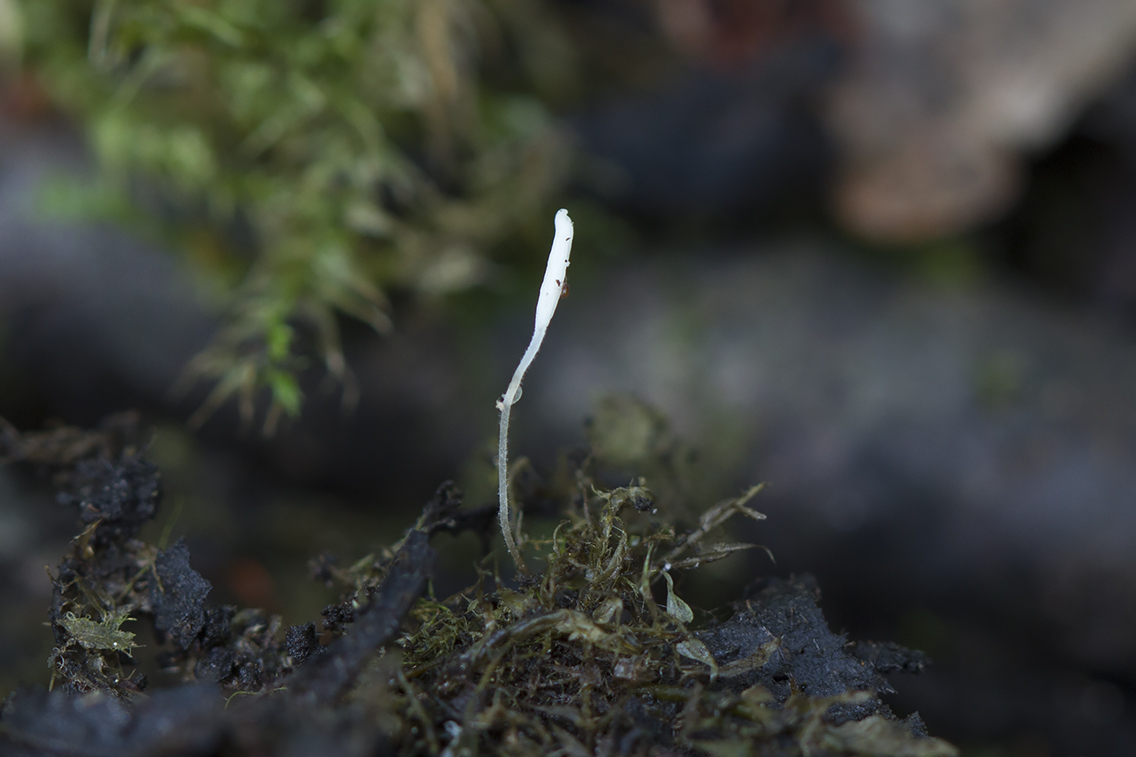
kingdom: Fungi
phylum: Basidiomycota
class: Agaricomycetes
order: Agaricales
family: Typhulaceae
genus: Typhula
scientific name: Typhula setipes
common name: liden trådkølle
